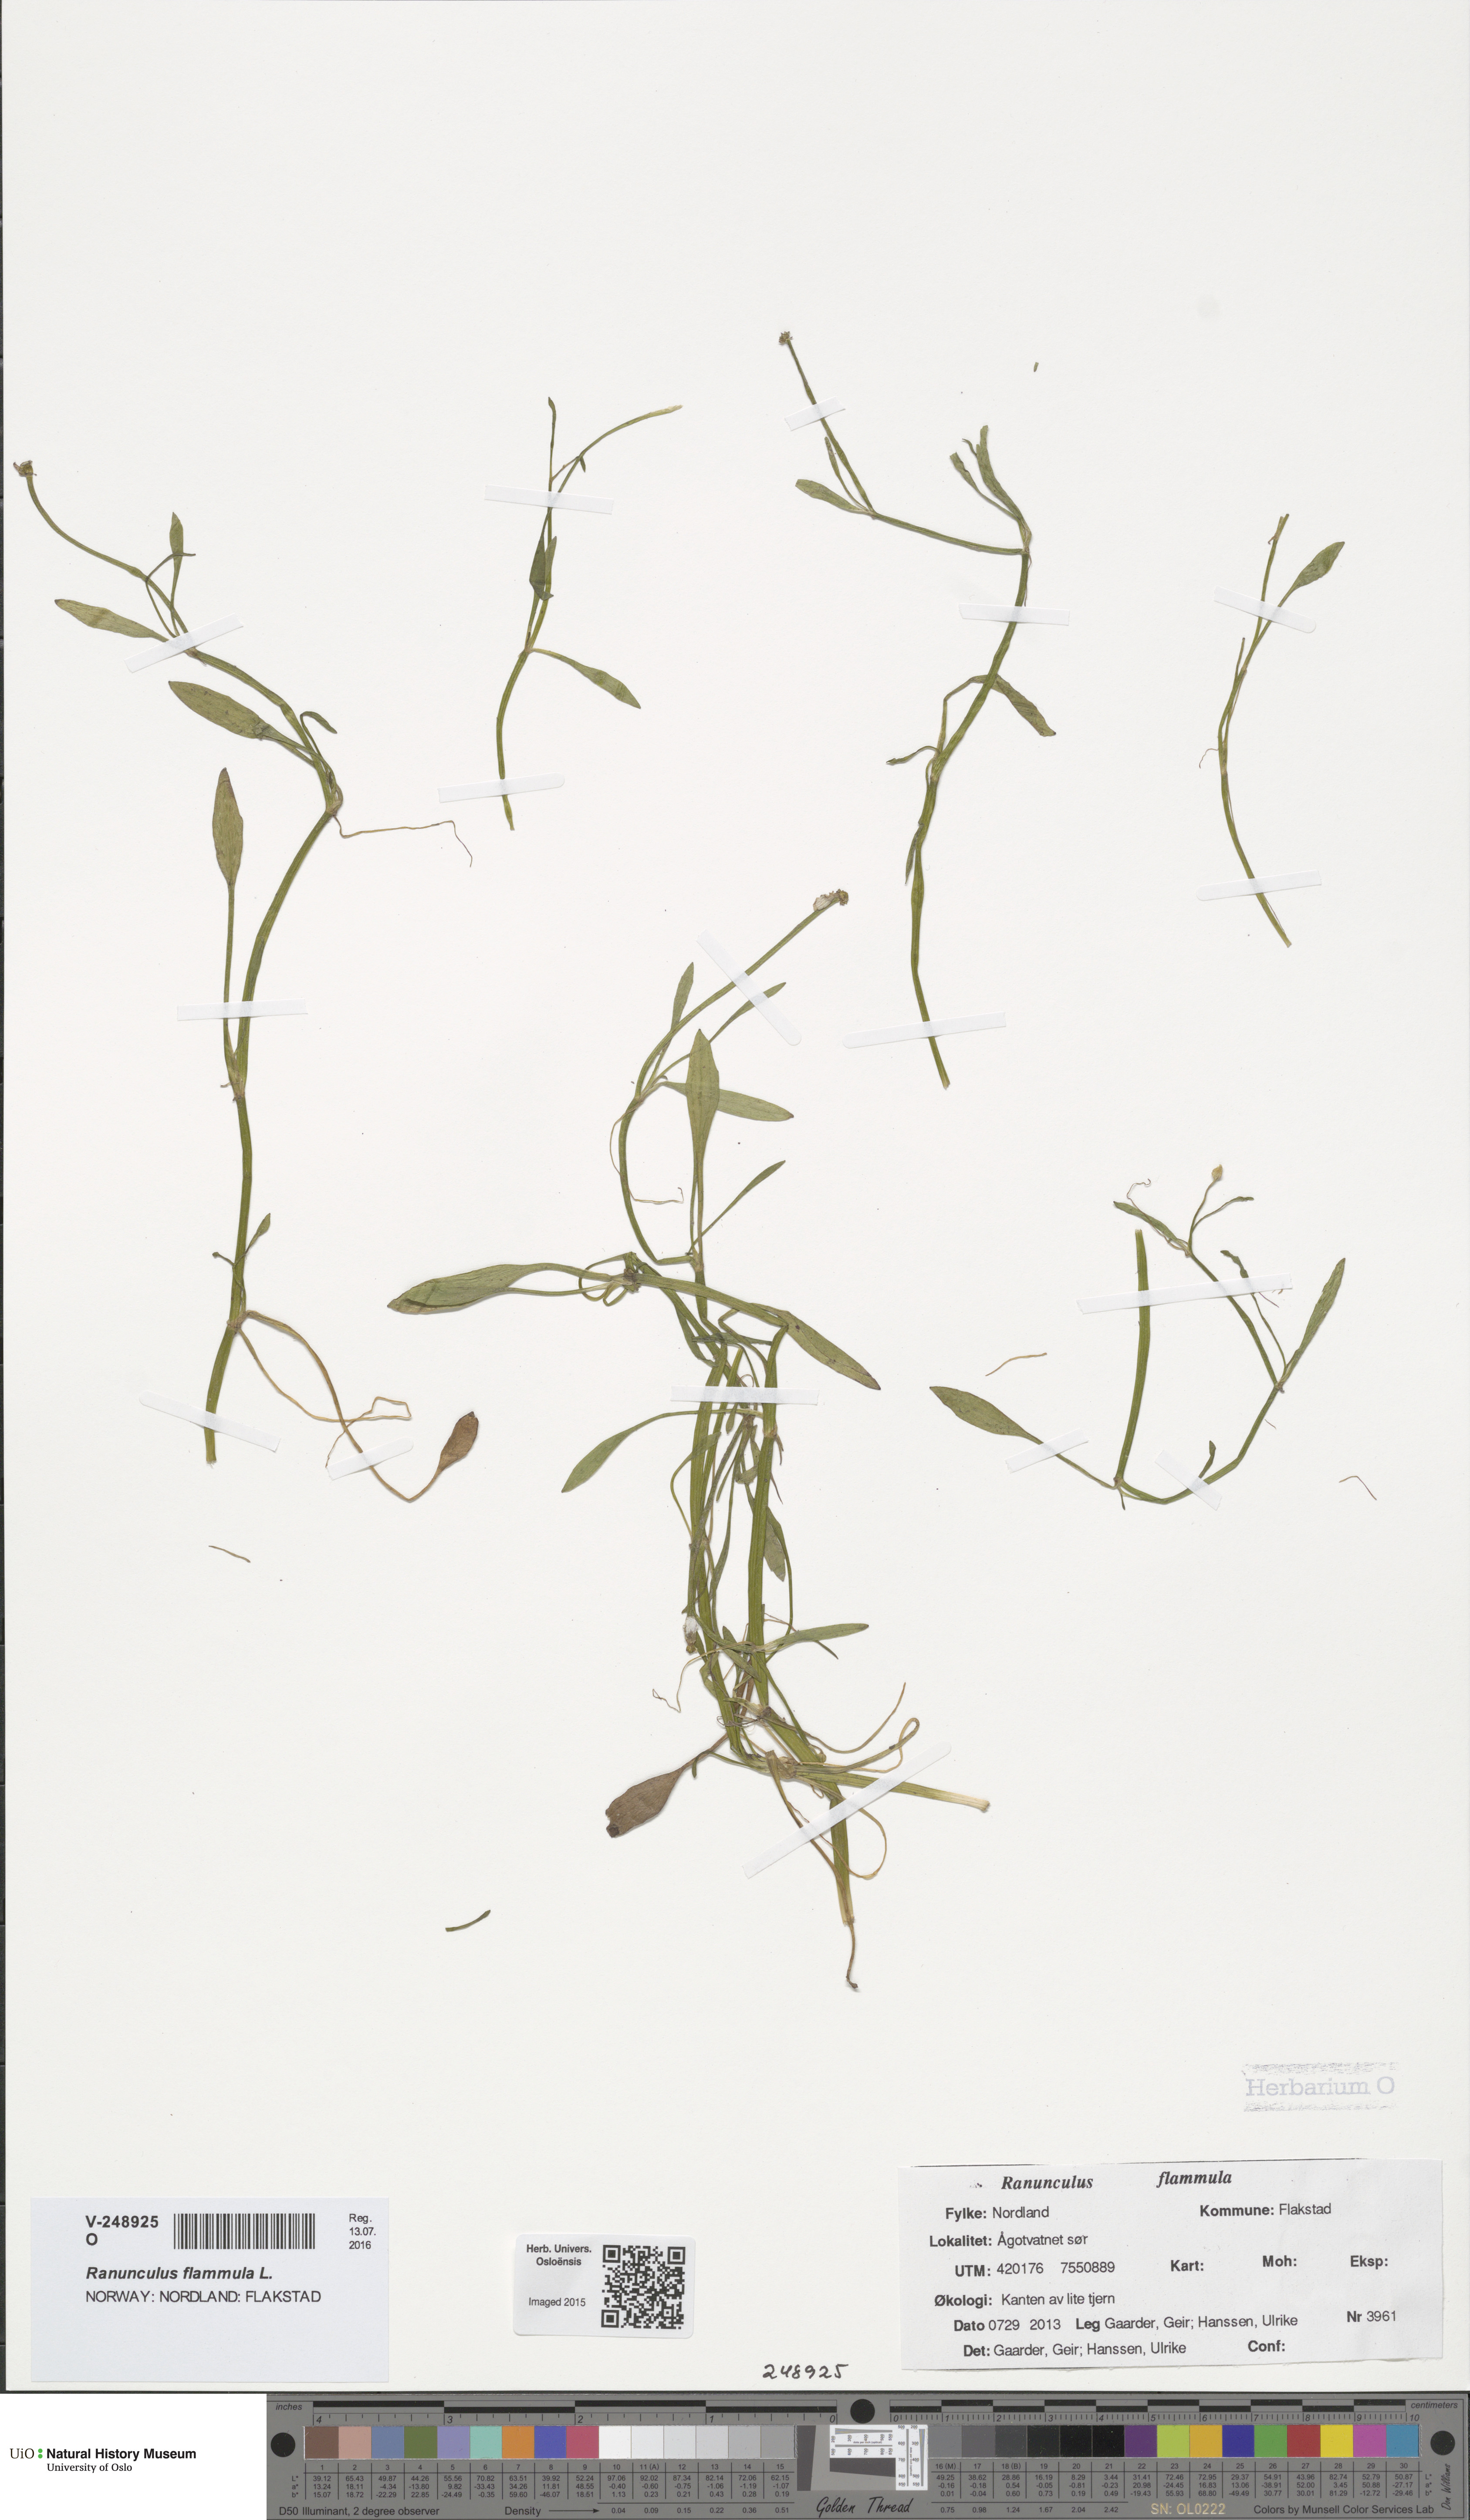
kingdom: Plantae
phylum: Tracheophyta
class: Magnoliopsida
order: Ranunculales
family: Ranunculaceae
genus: Ranunculus
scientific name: Ranunculus flammula
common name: Lesser spearwort
